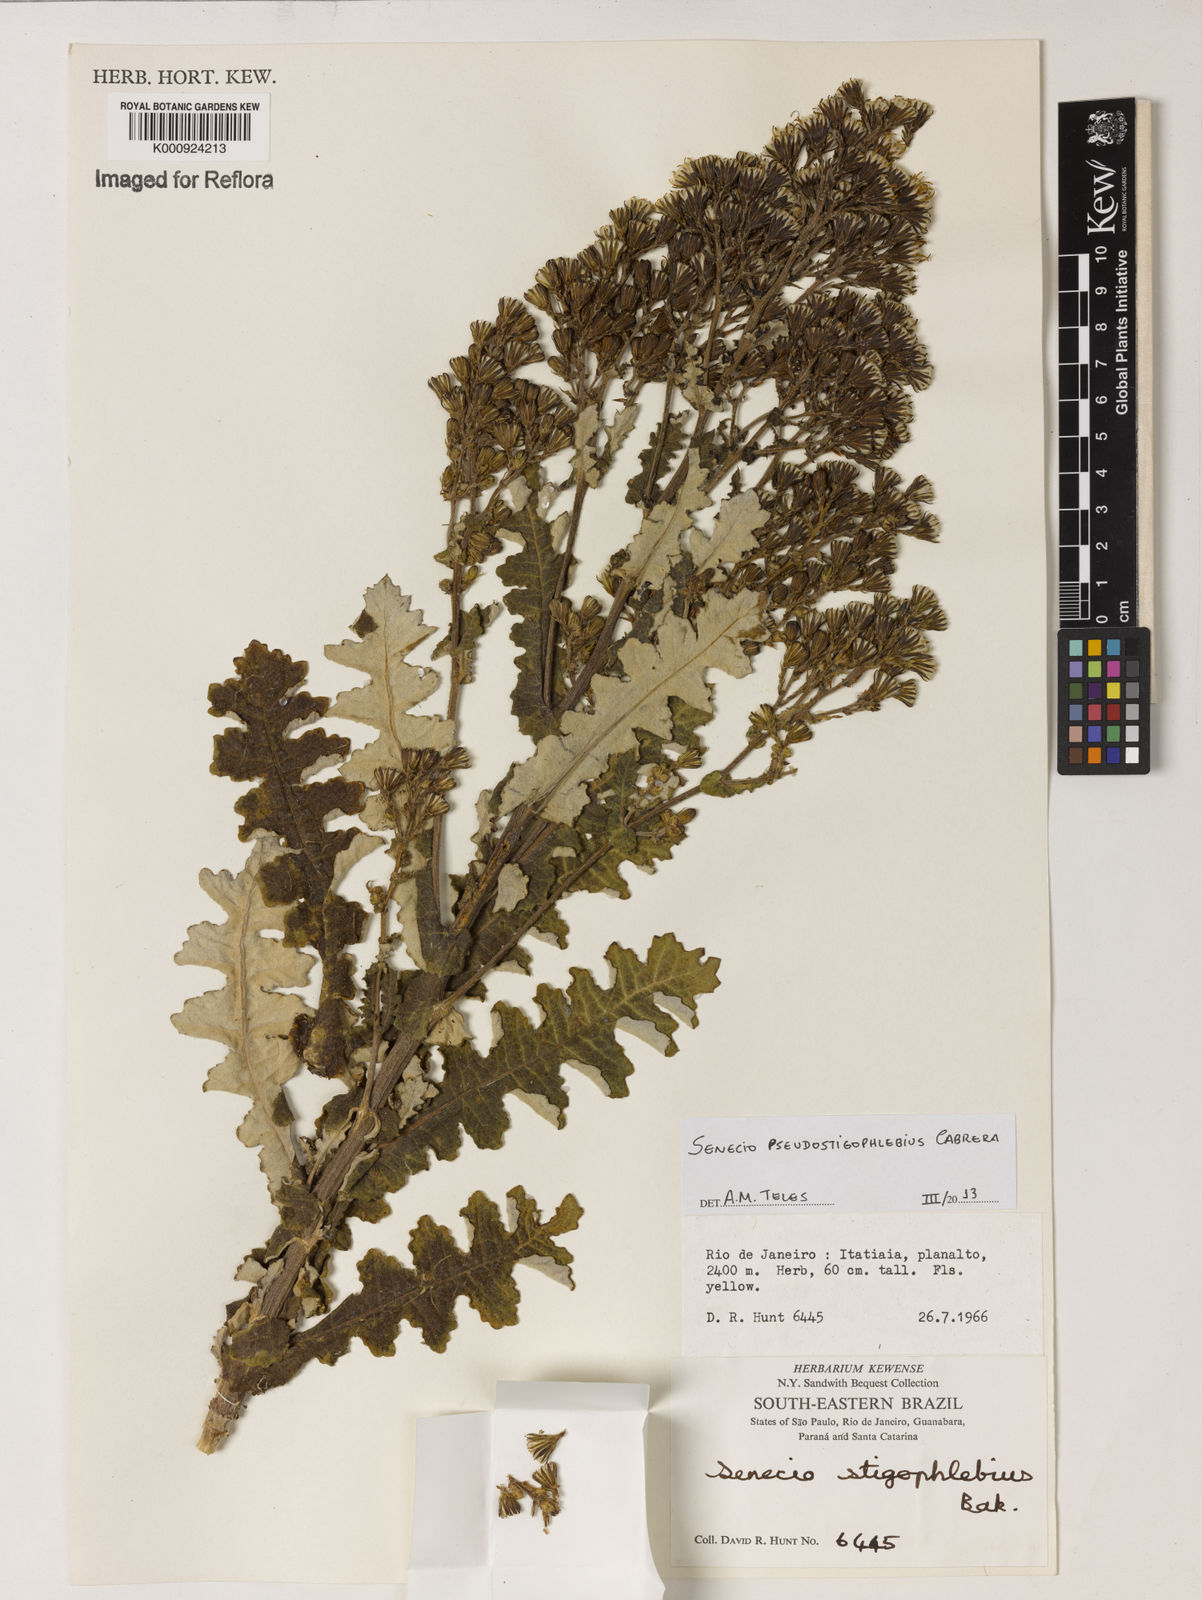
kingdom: Plantae
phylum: Tracheophyta
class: Magnoliopsida
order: Asterales
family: Asteraceae
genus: Senecio
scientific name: Senecio pseudostigophlebius
